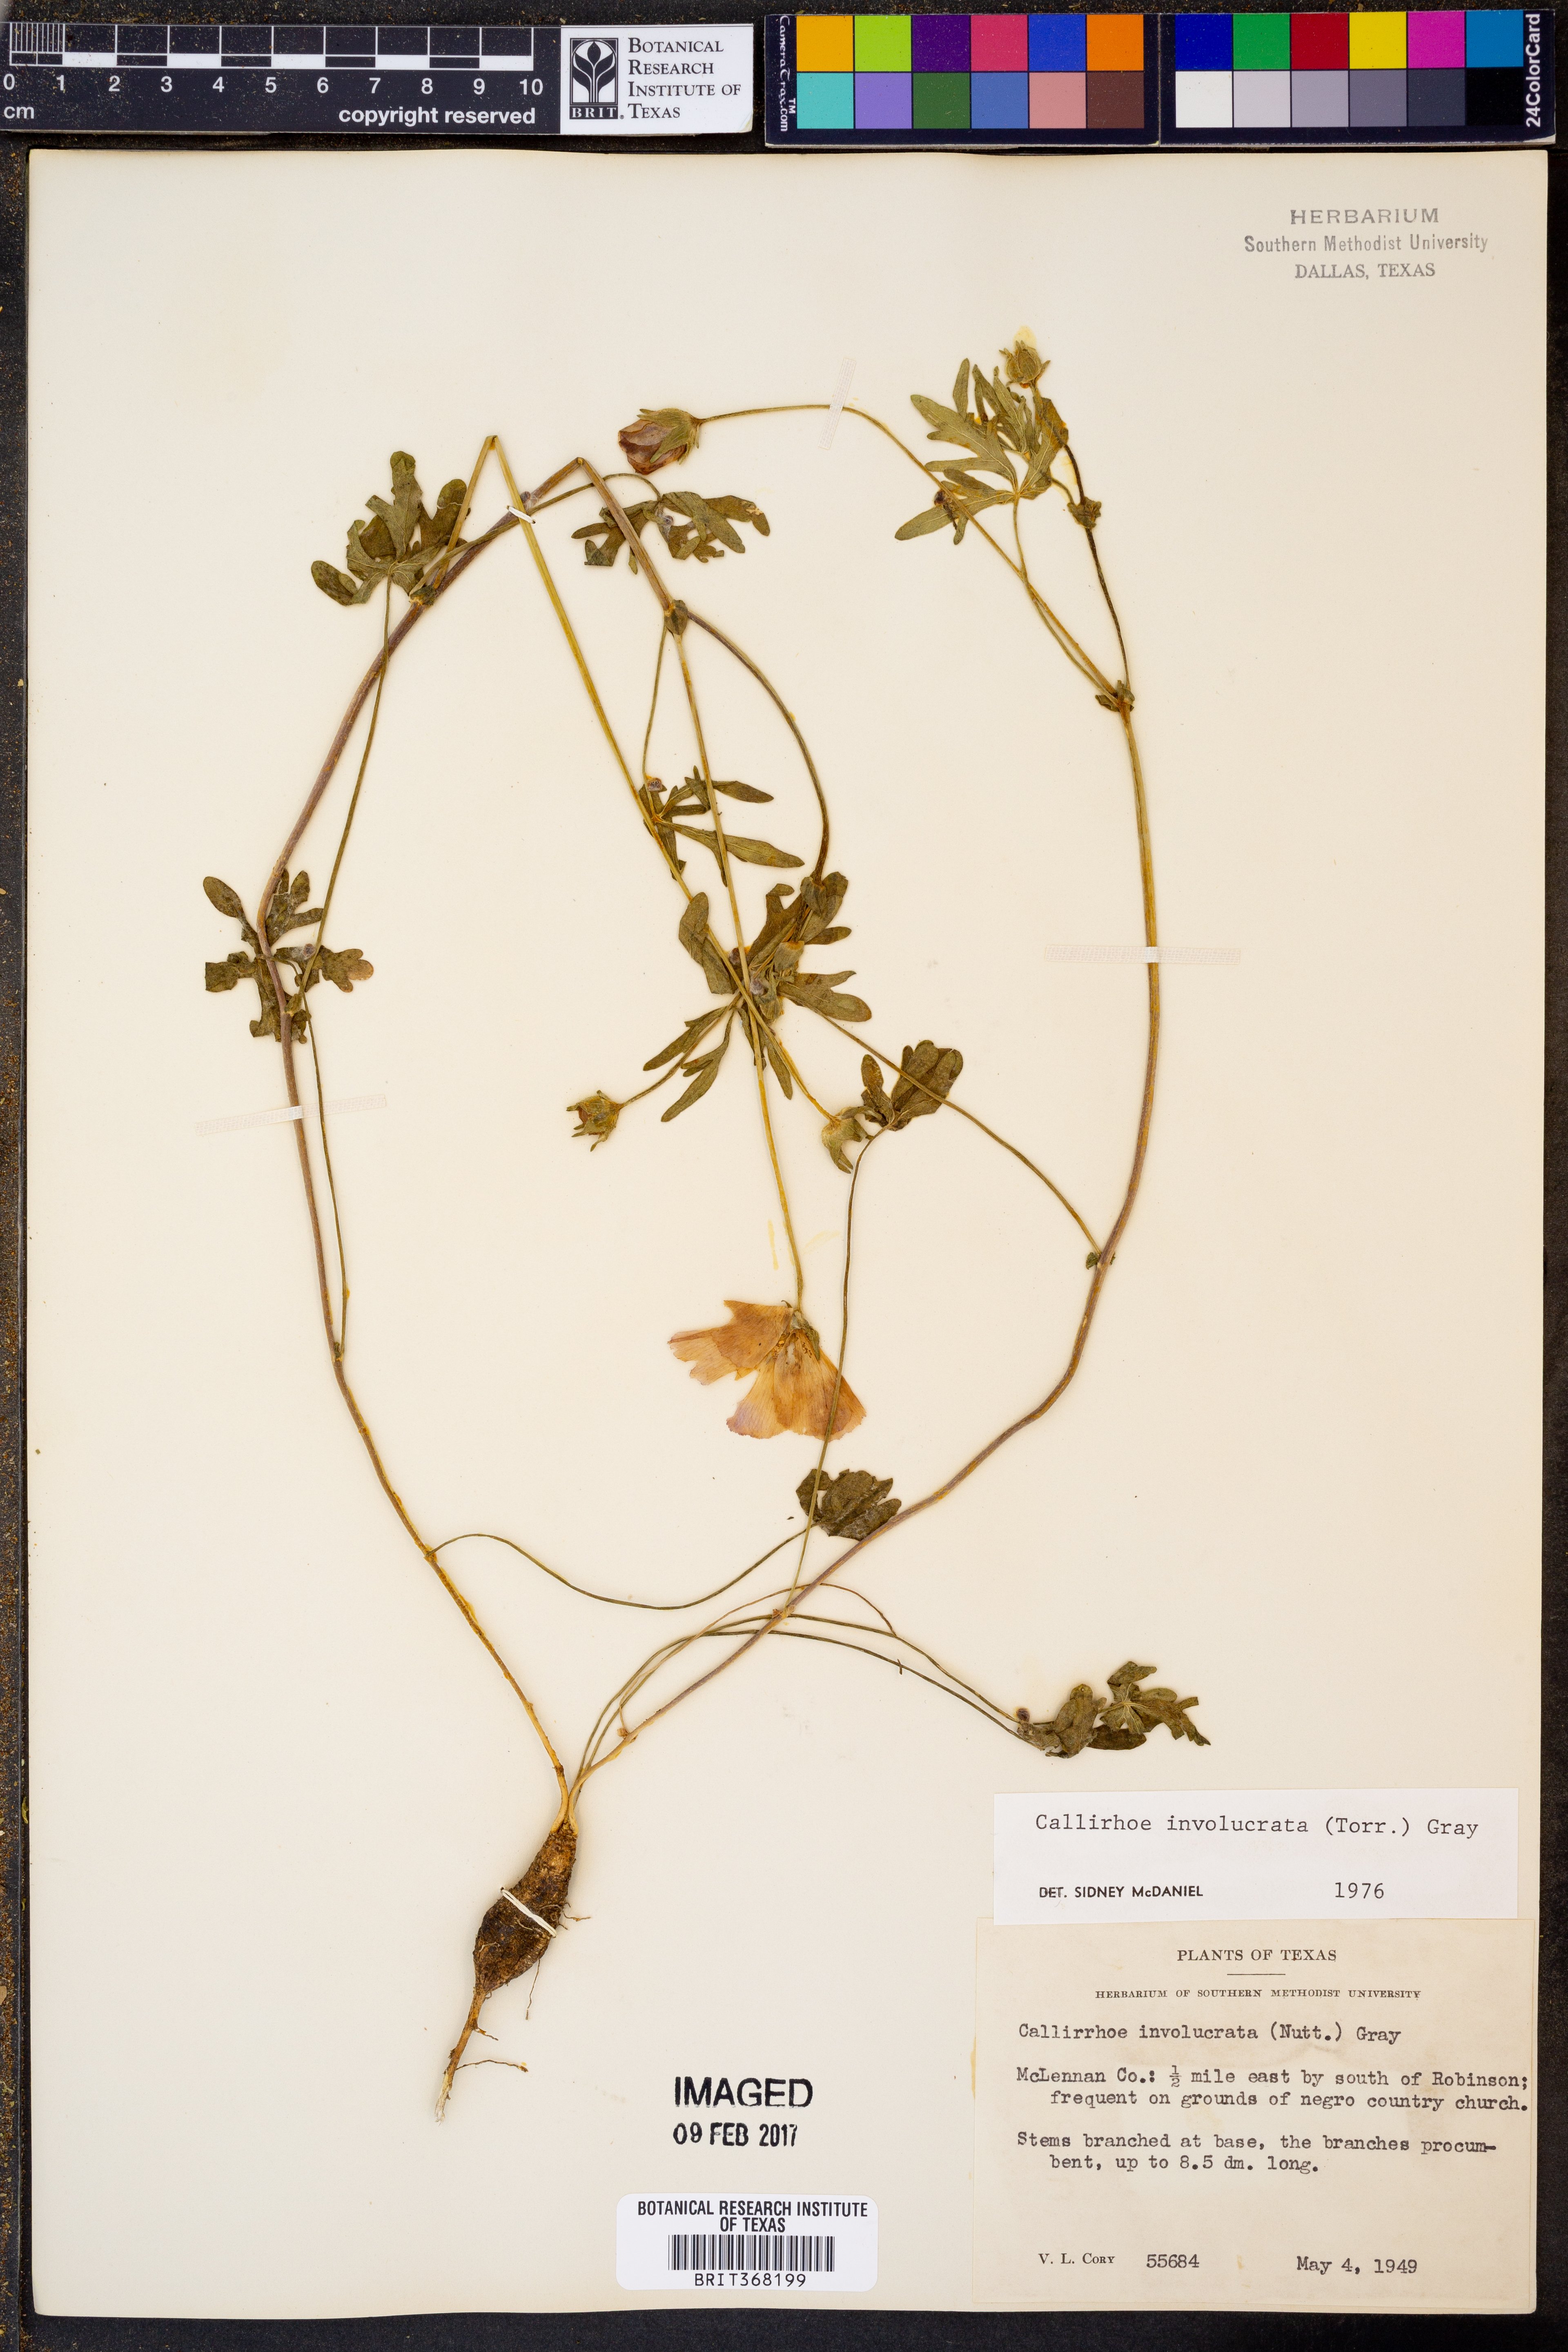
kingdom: Plantae
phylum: Tracheophyta
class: Magnoliopsida
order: Malvales
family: Malvaceae
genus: Callirhoe
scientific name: Callirhoe involucrata
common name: Purple poppy-mallow
